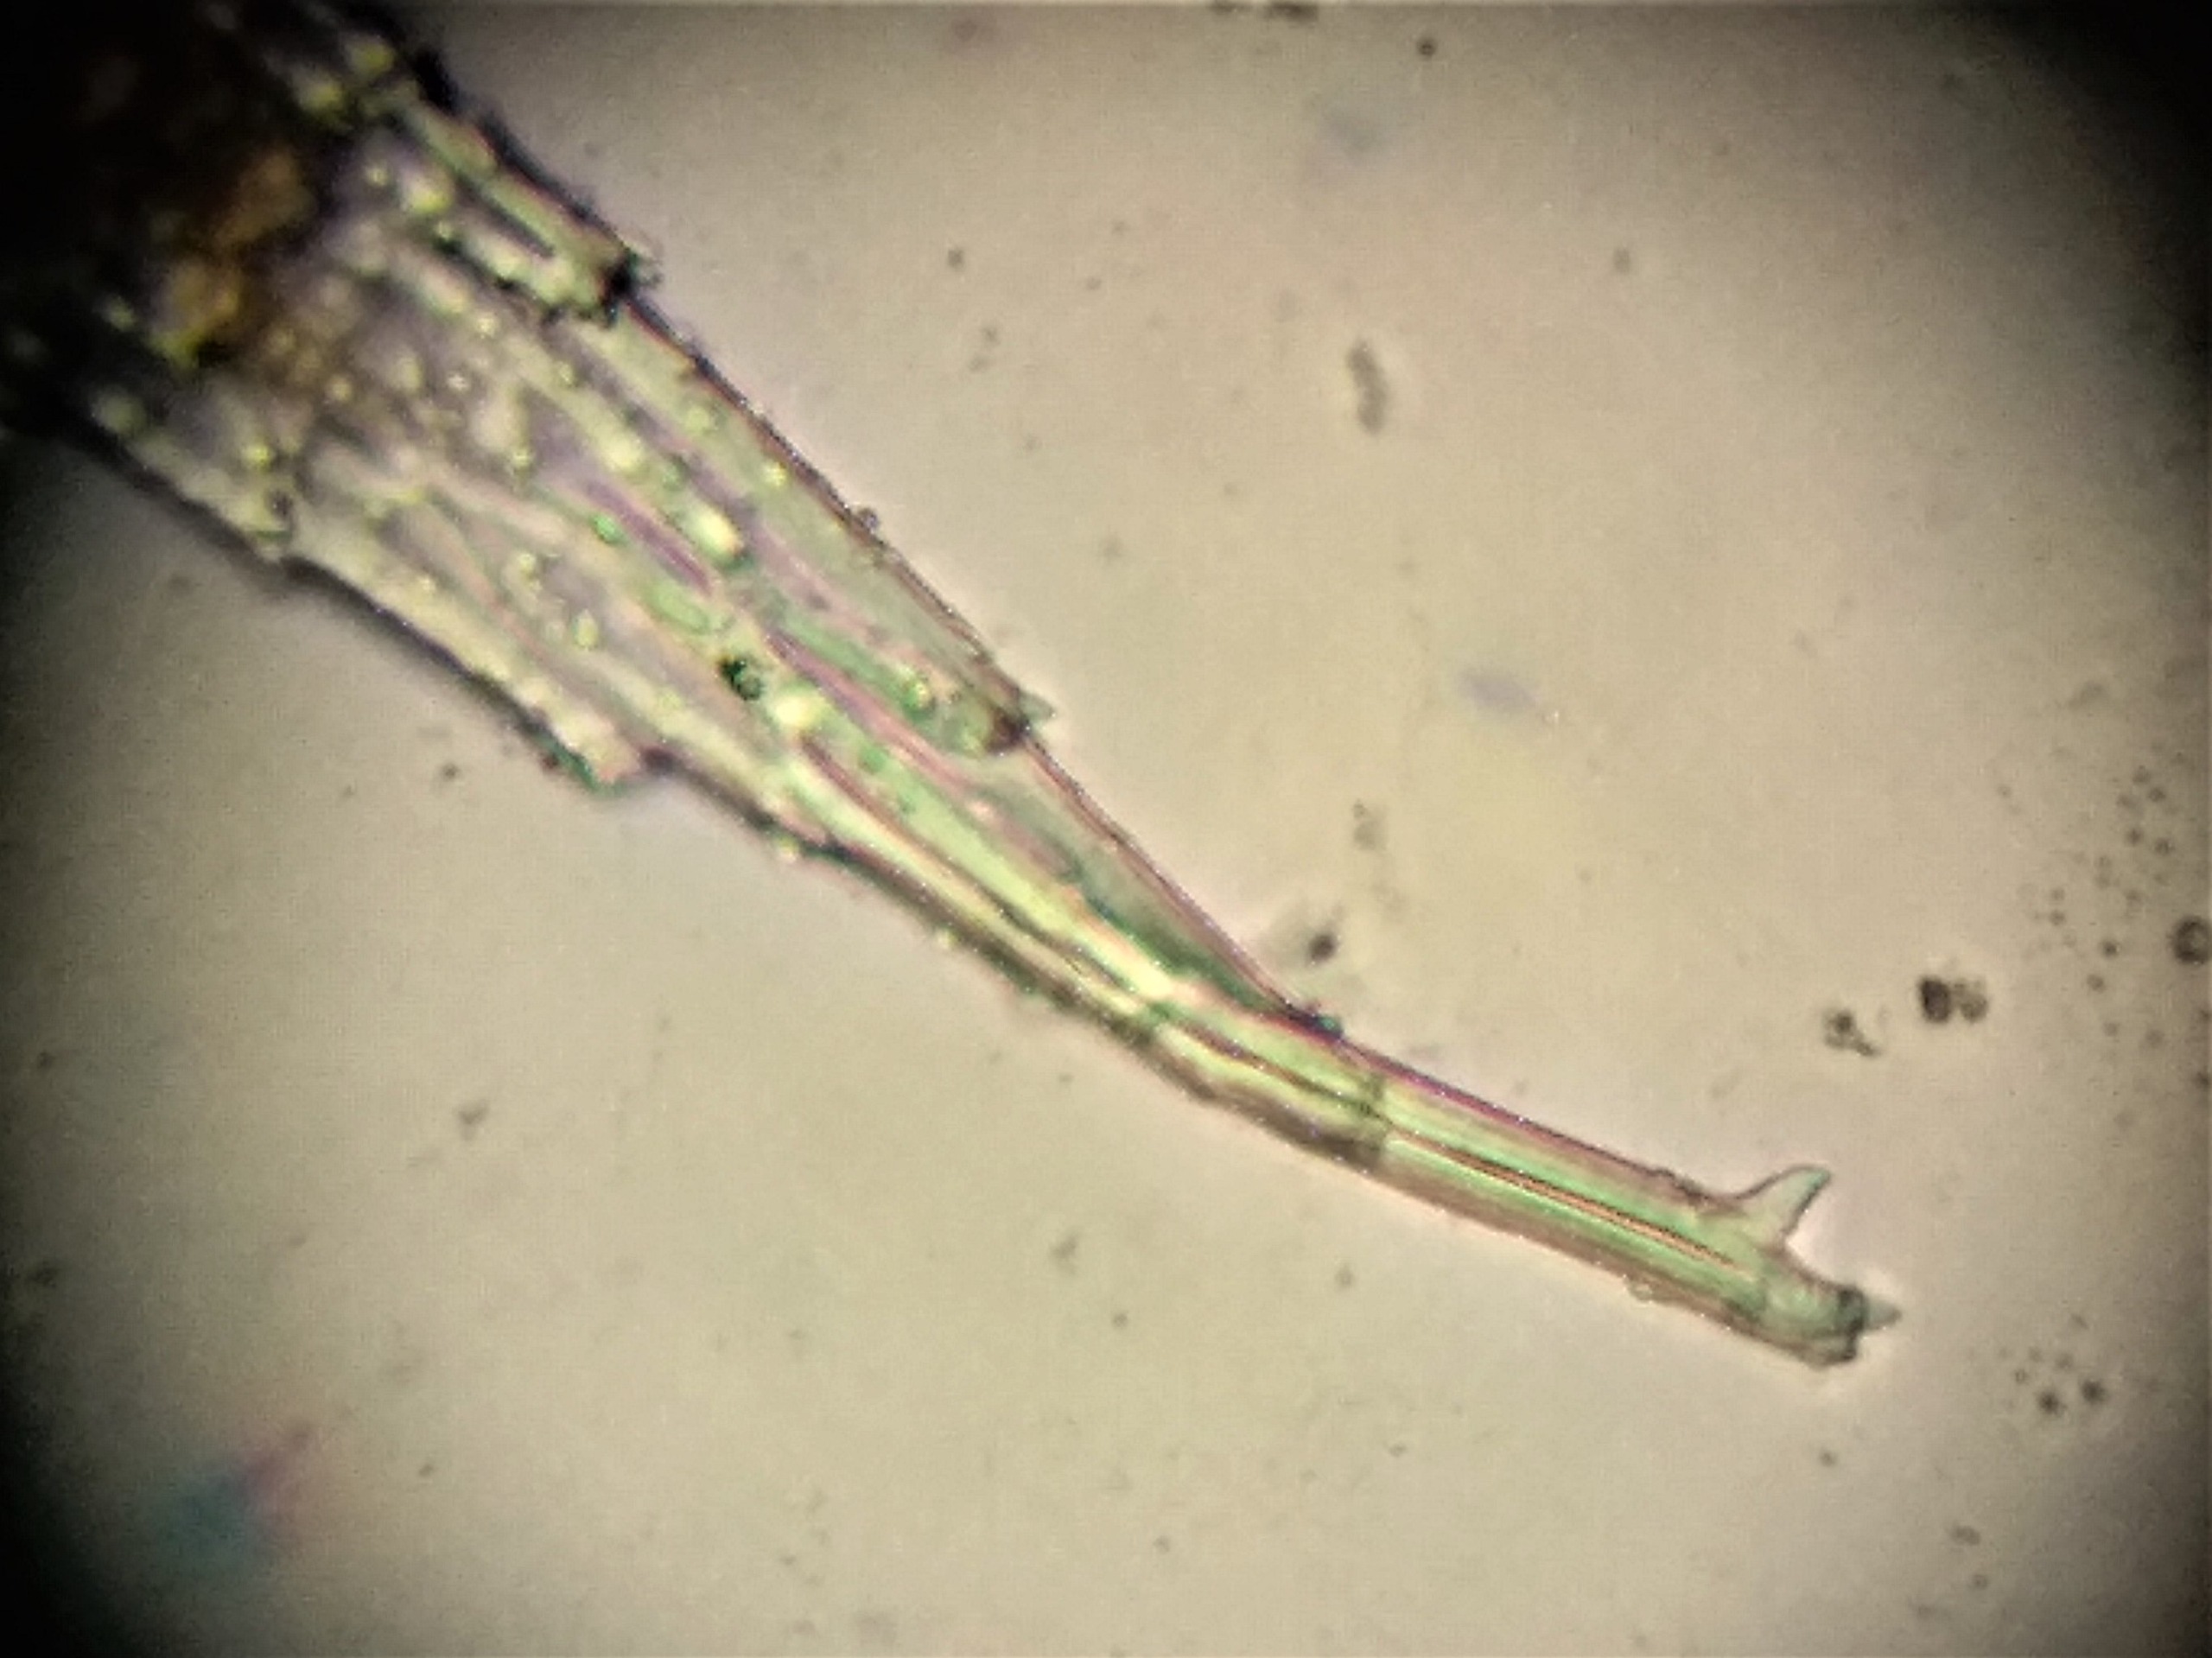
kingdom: Plantae
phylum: Bryophyta
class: Bryopsida
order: Hedwigiales
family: Hedwigiaceae
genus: Hedwigia
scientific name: Hedwigia ciliata
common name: Hvidspidset hedwigia
